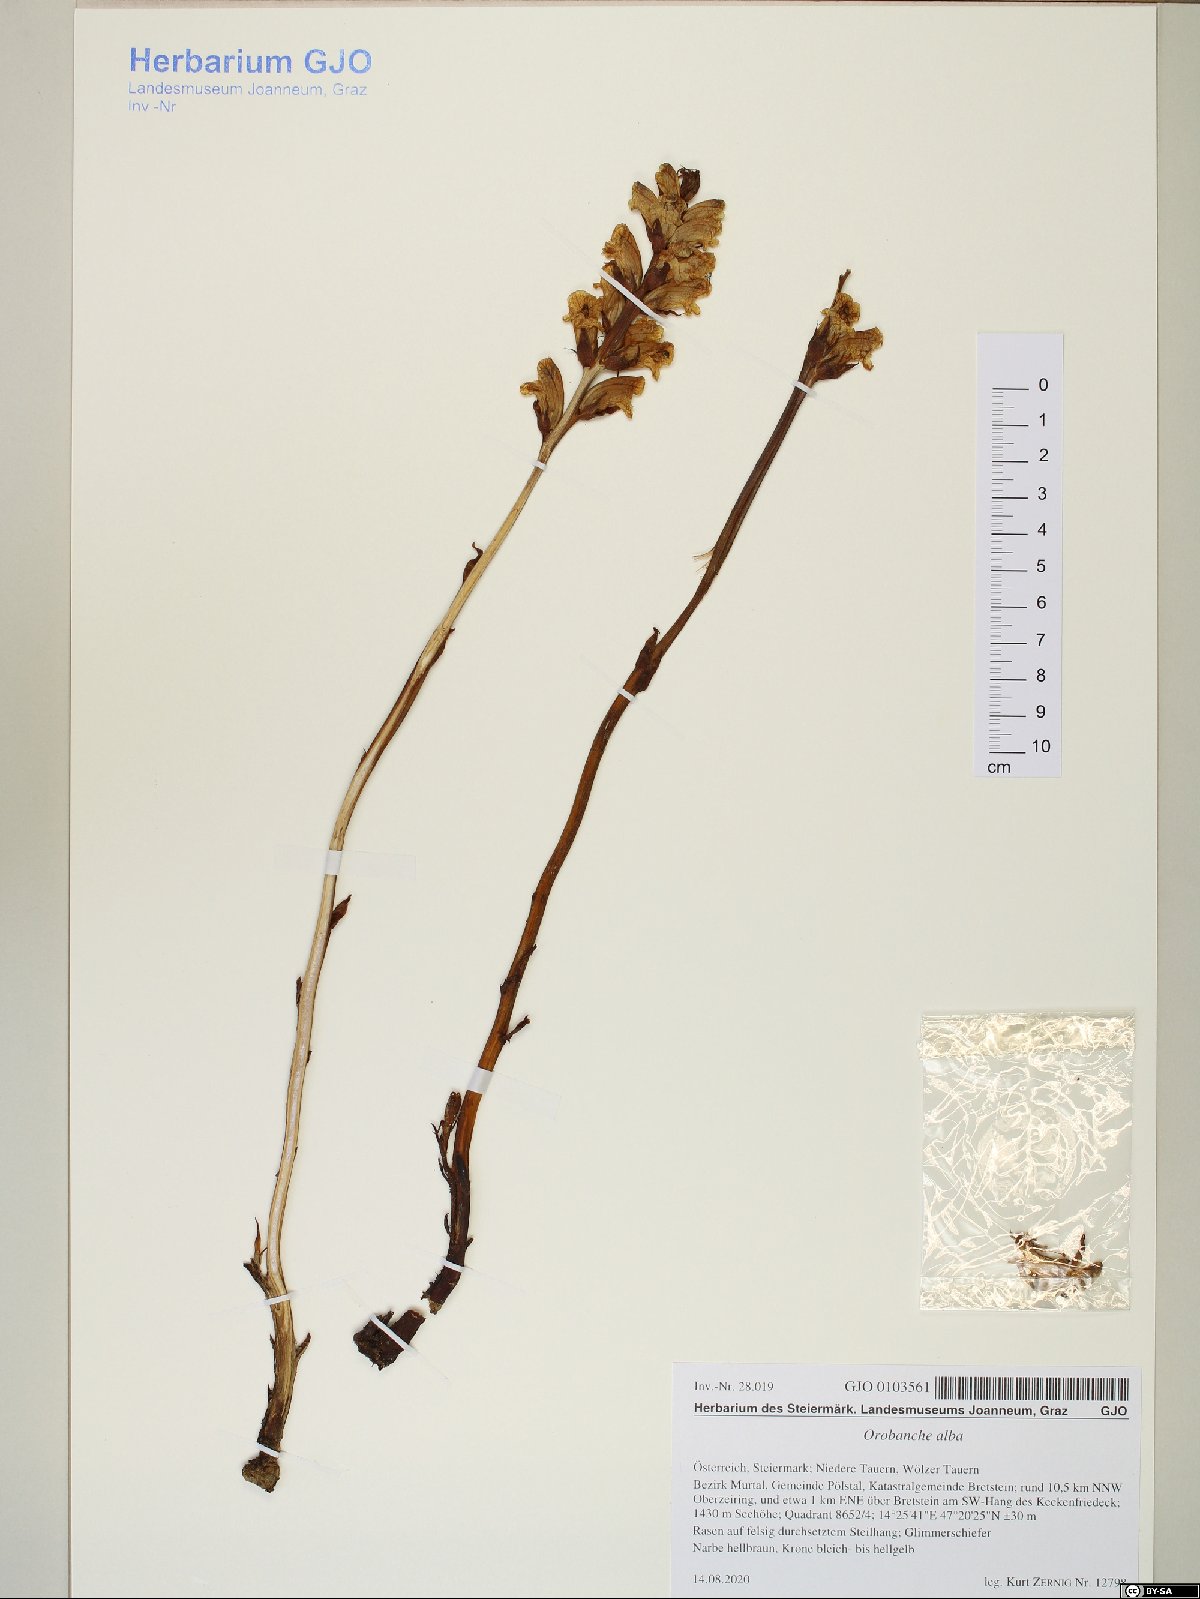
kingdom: Plantae
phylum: Tracheophyta
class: Magnoliopsida
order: Lamiales
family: Orobanchaceae
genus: Orobanche
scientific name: Orobanche alba
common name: Thyme broomrape
